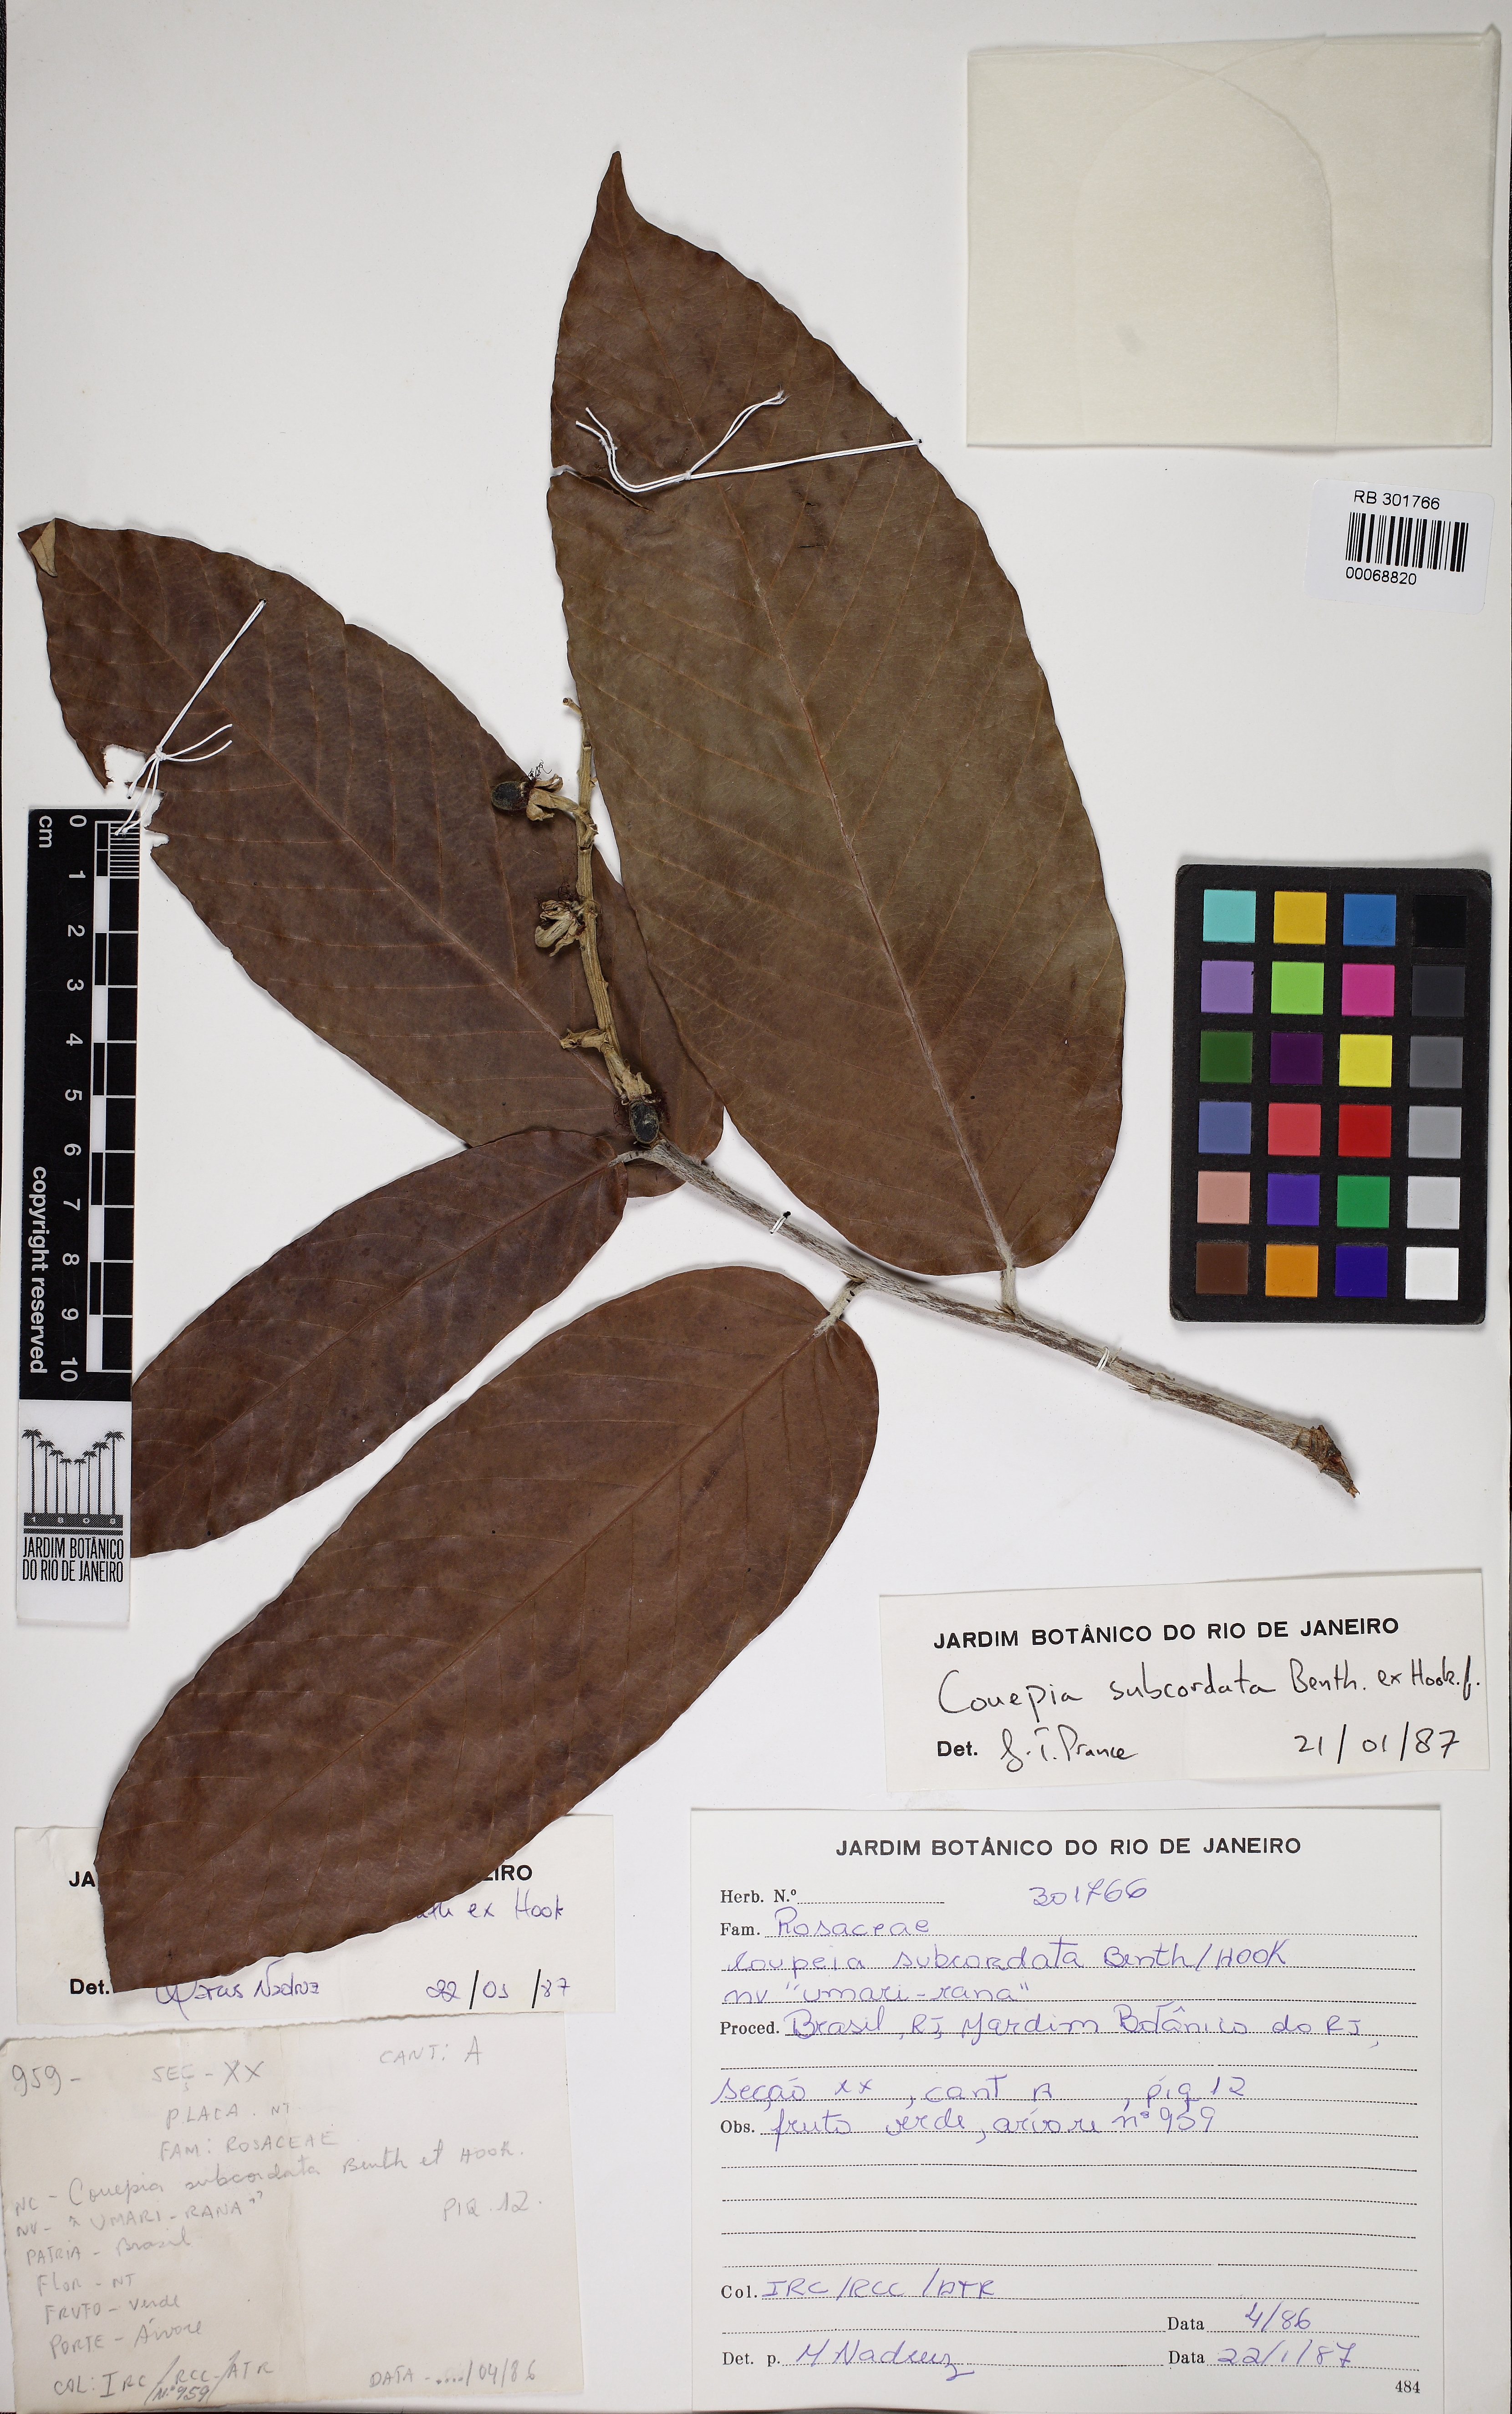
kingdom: Plantae
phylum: Tracheophyta
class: Magnoliopsida
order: Malpighiales
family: Chrysobalanaceae
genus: Couepia
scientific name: Couepia subcordata
